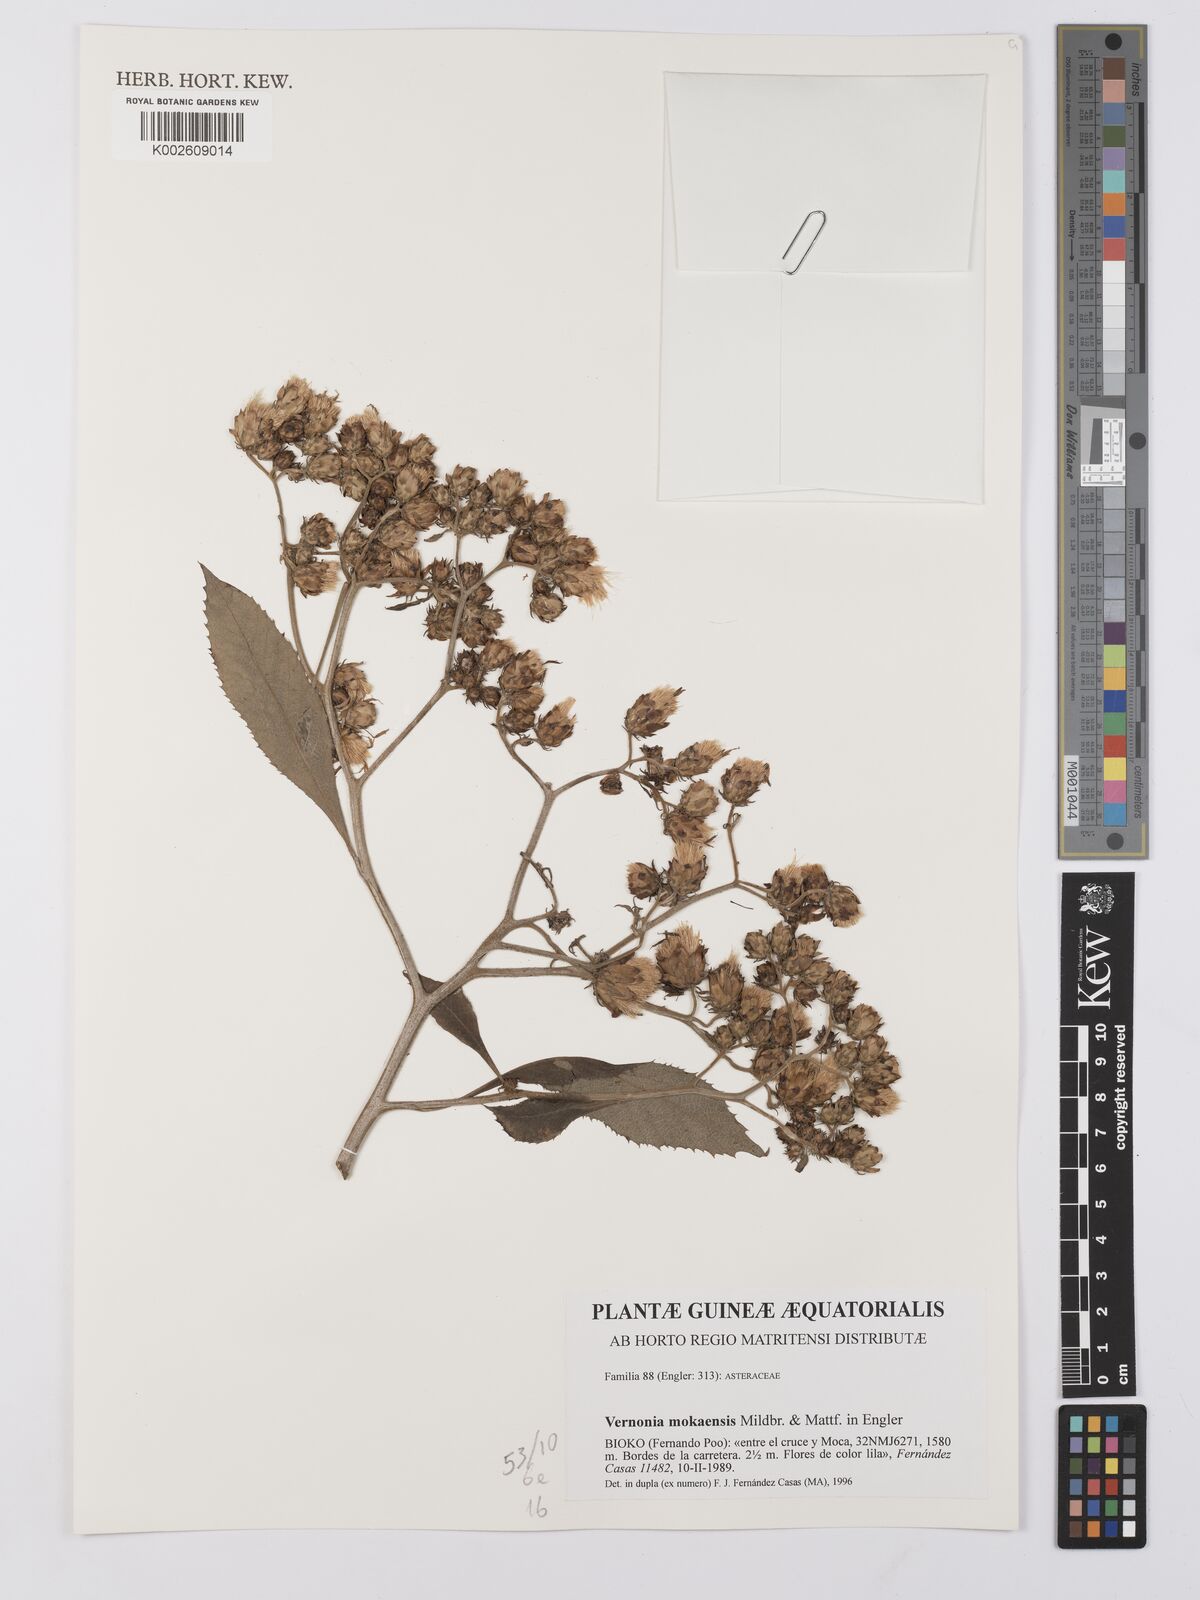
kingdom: Plantae
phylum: Tracheophyta
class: Magnoliopsida
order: Asterales
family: Asteraceae
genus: Baccharoides
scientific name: Baccharoides calvoana
